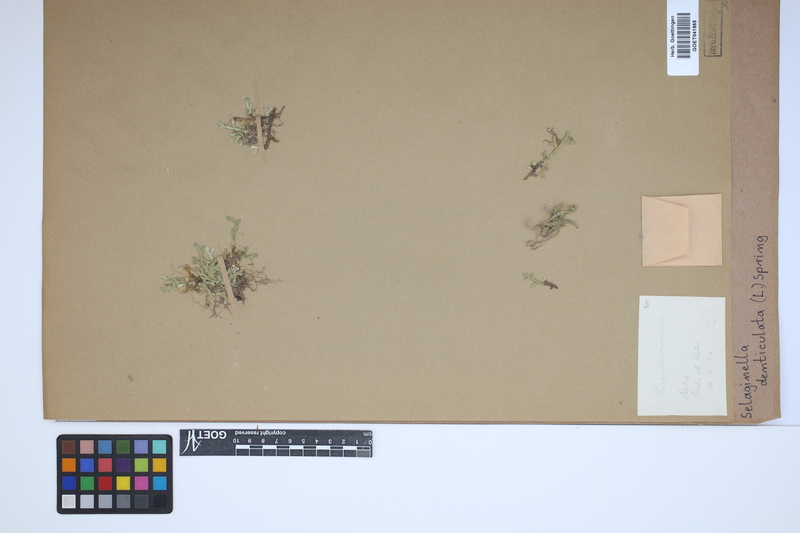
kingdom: Plantae
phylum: Tracheophyta
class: Lycopodiopsida
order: Selaginellales
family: Selaginellaceae
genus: Selaginella
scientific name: Selaginella denticulata
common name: Toothed-leaved clubmoss
